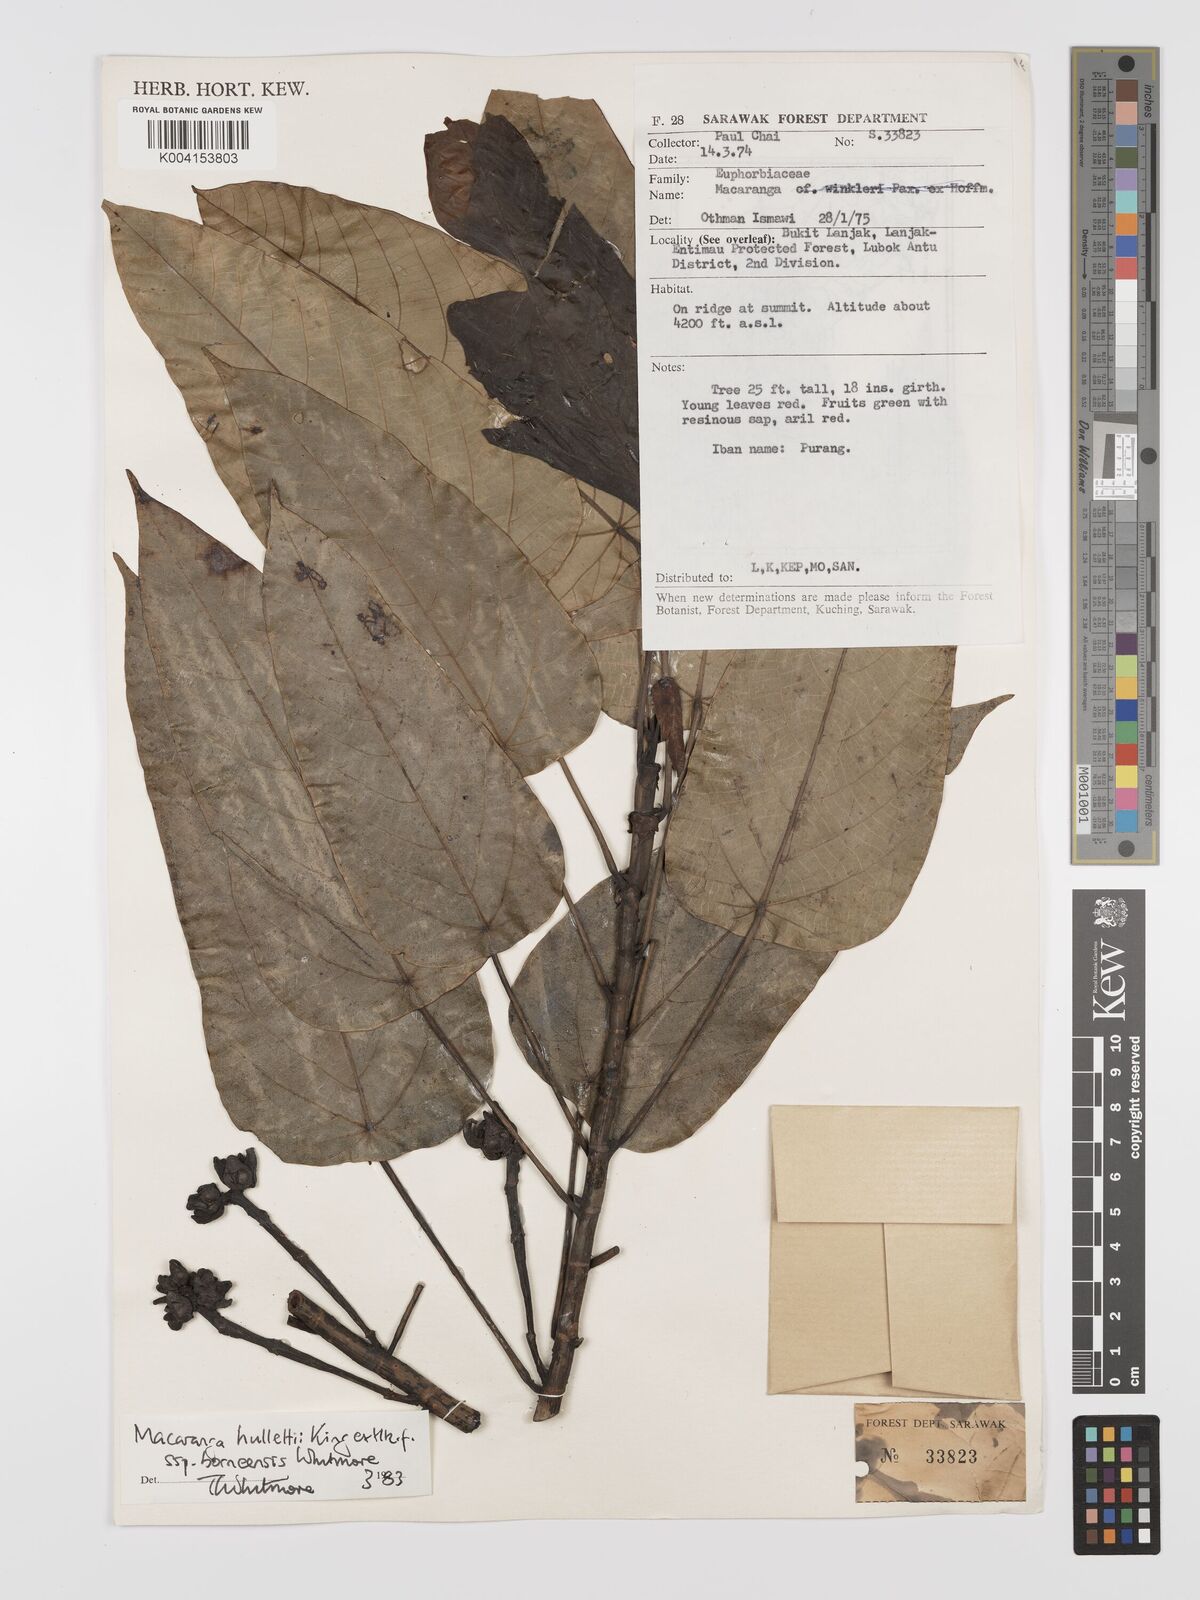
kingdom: Plantae
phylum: Tracheophyta
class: Magnoliopsida
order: Malpighiales
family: Euphorbiaceae
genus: Macaranga
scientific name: Macaranga hullettii
